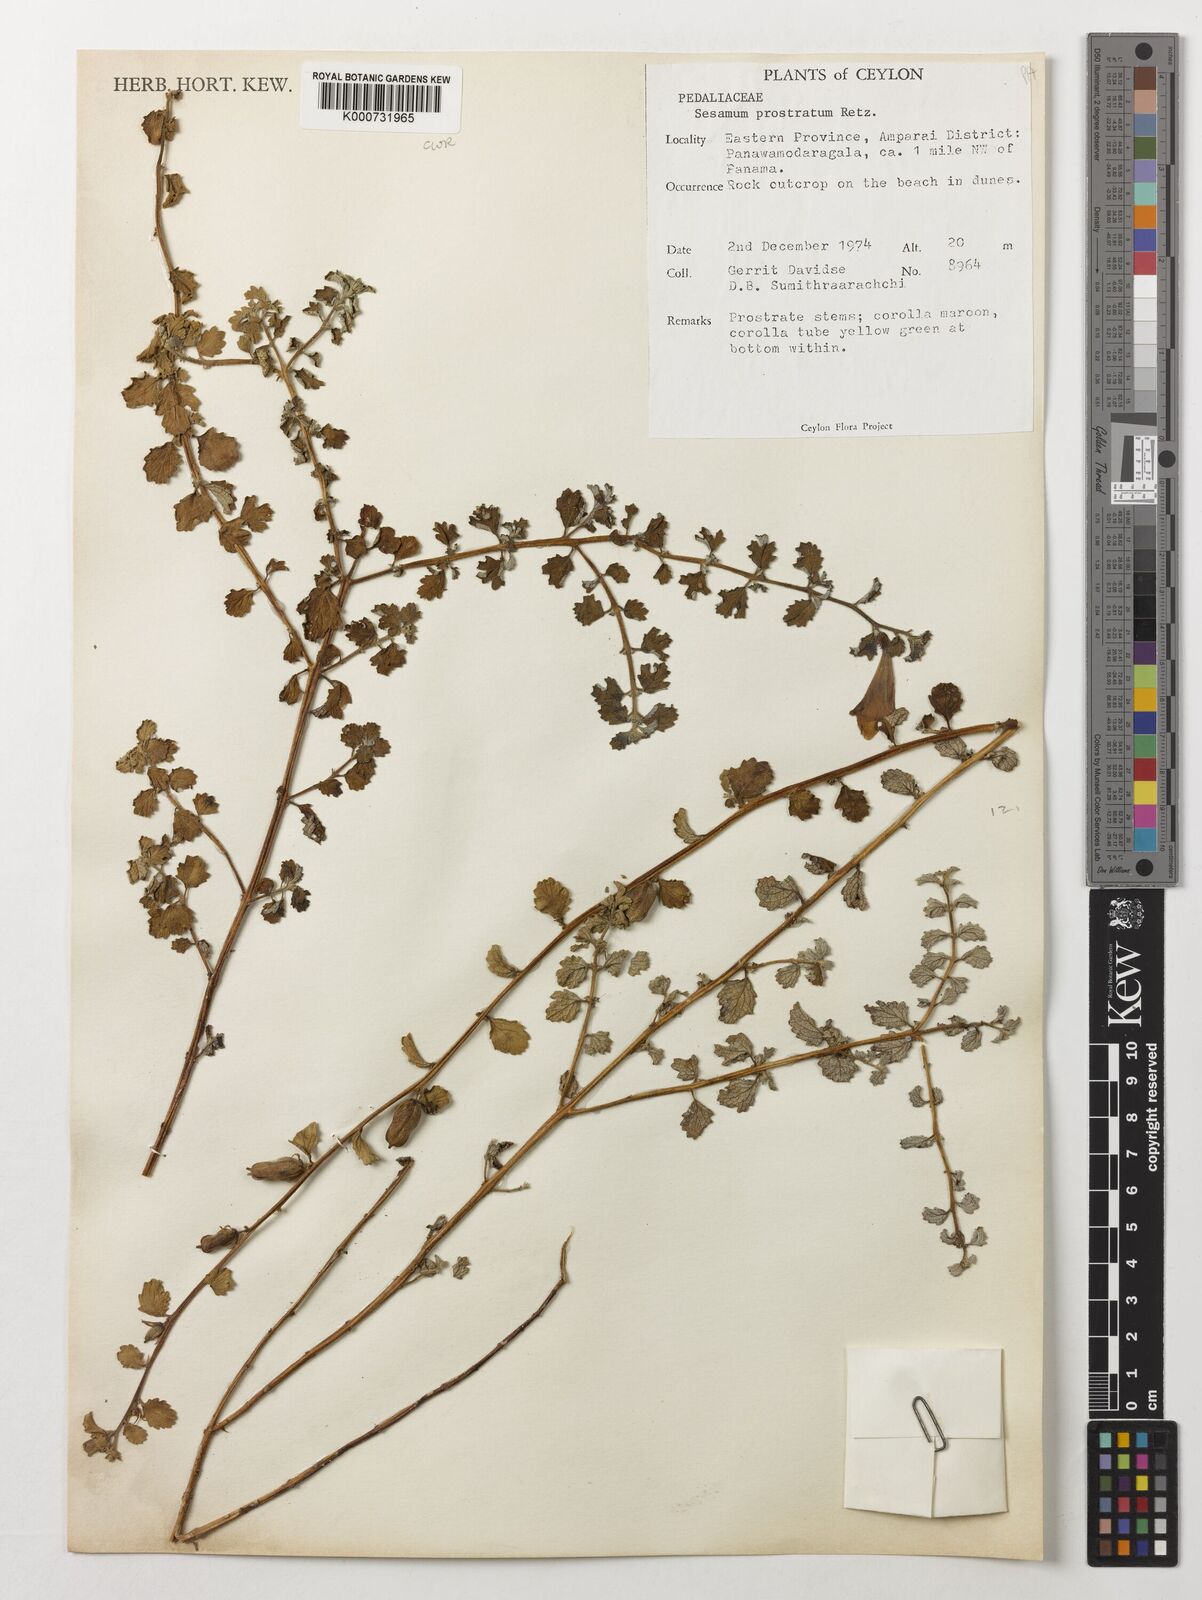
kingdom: Plantae
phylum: Tracheophyta
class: Magnoliopsida
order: Lamiales
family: Pedaliaceae
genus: Sesamum
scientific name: Sesamum prostratum
